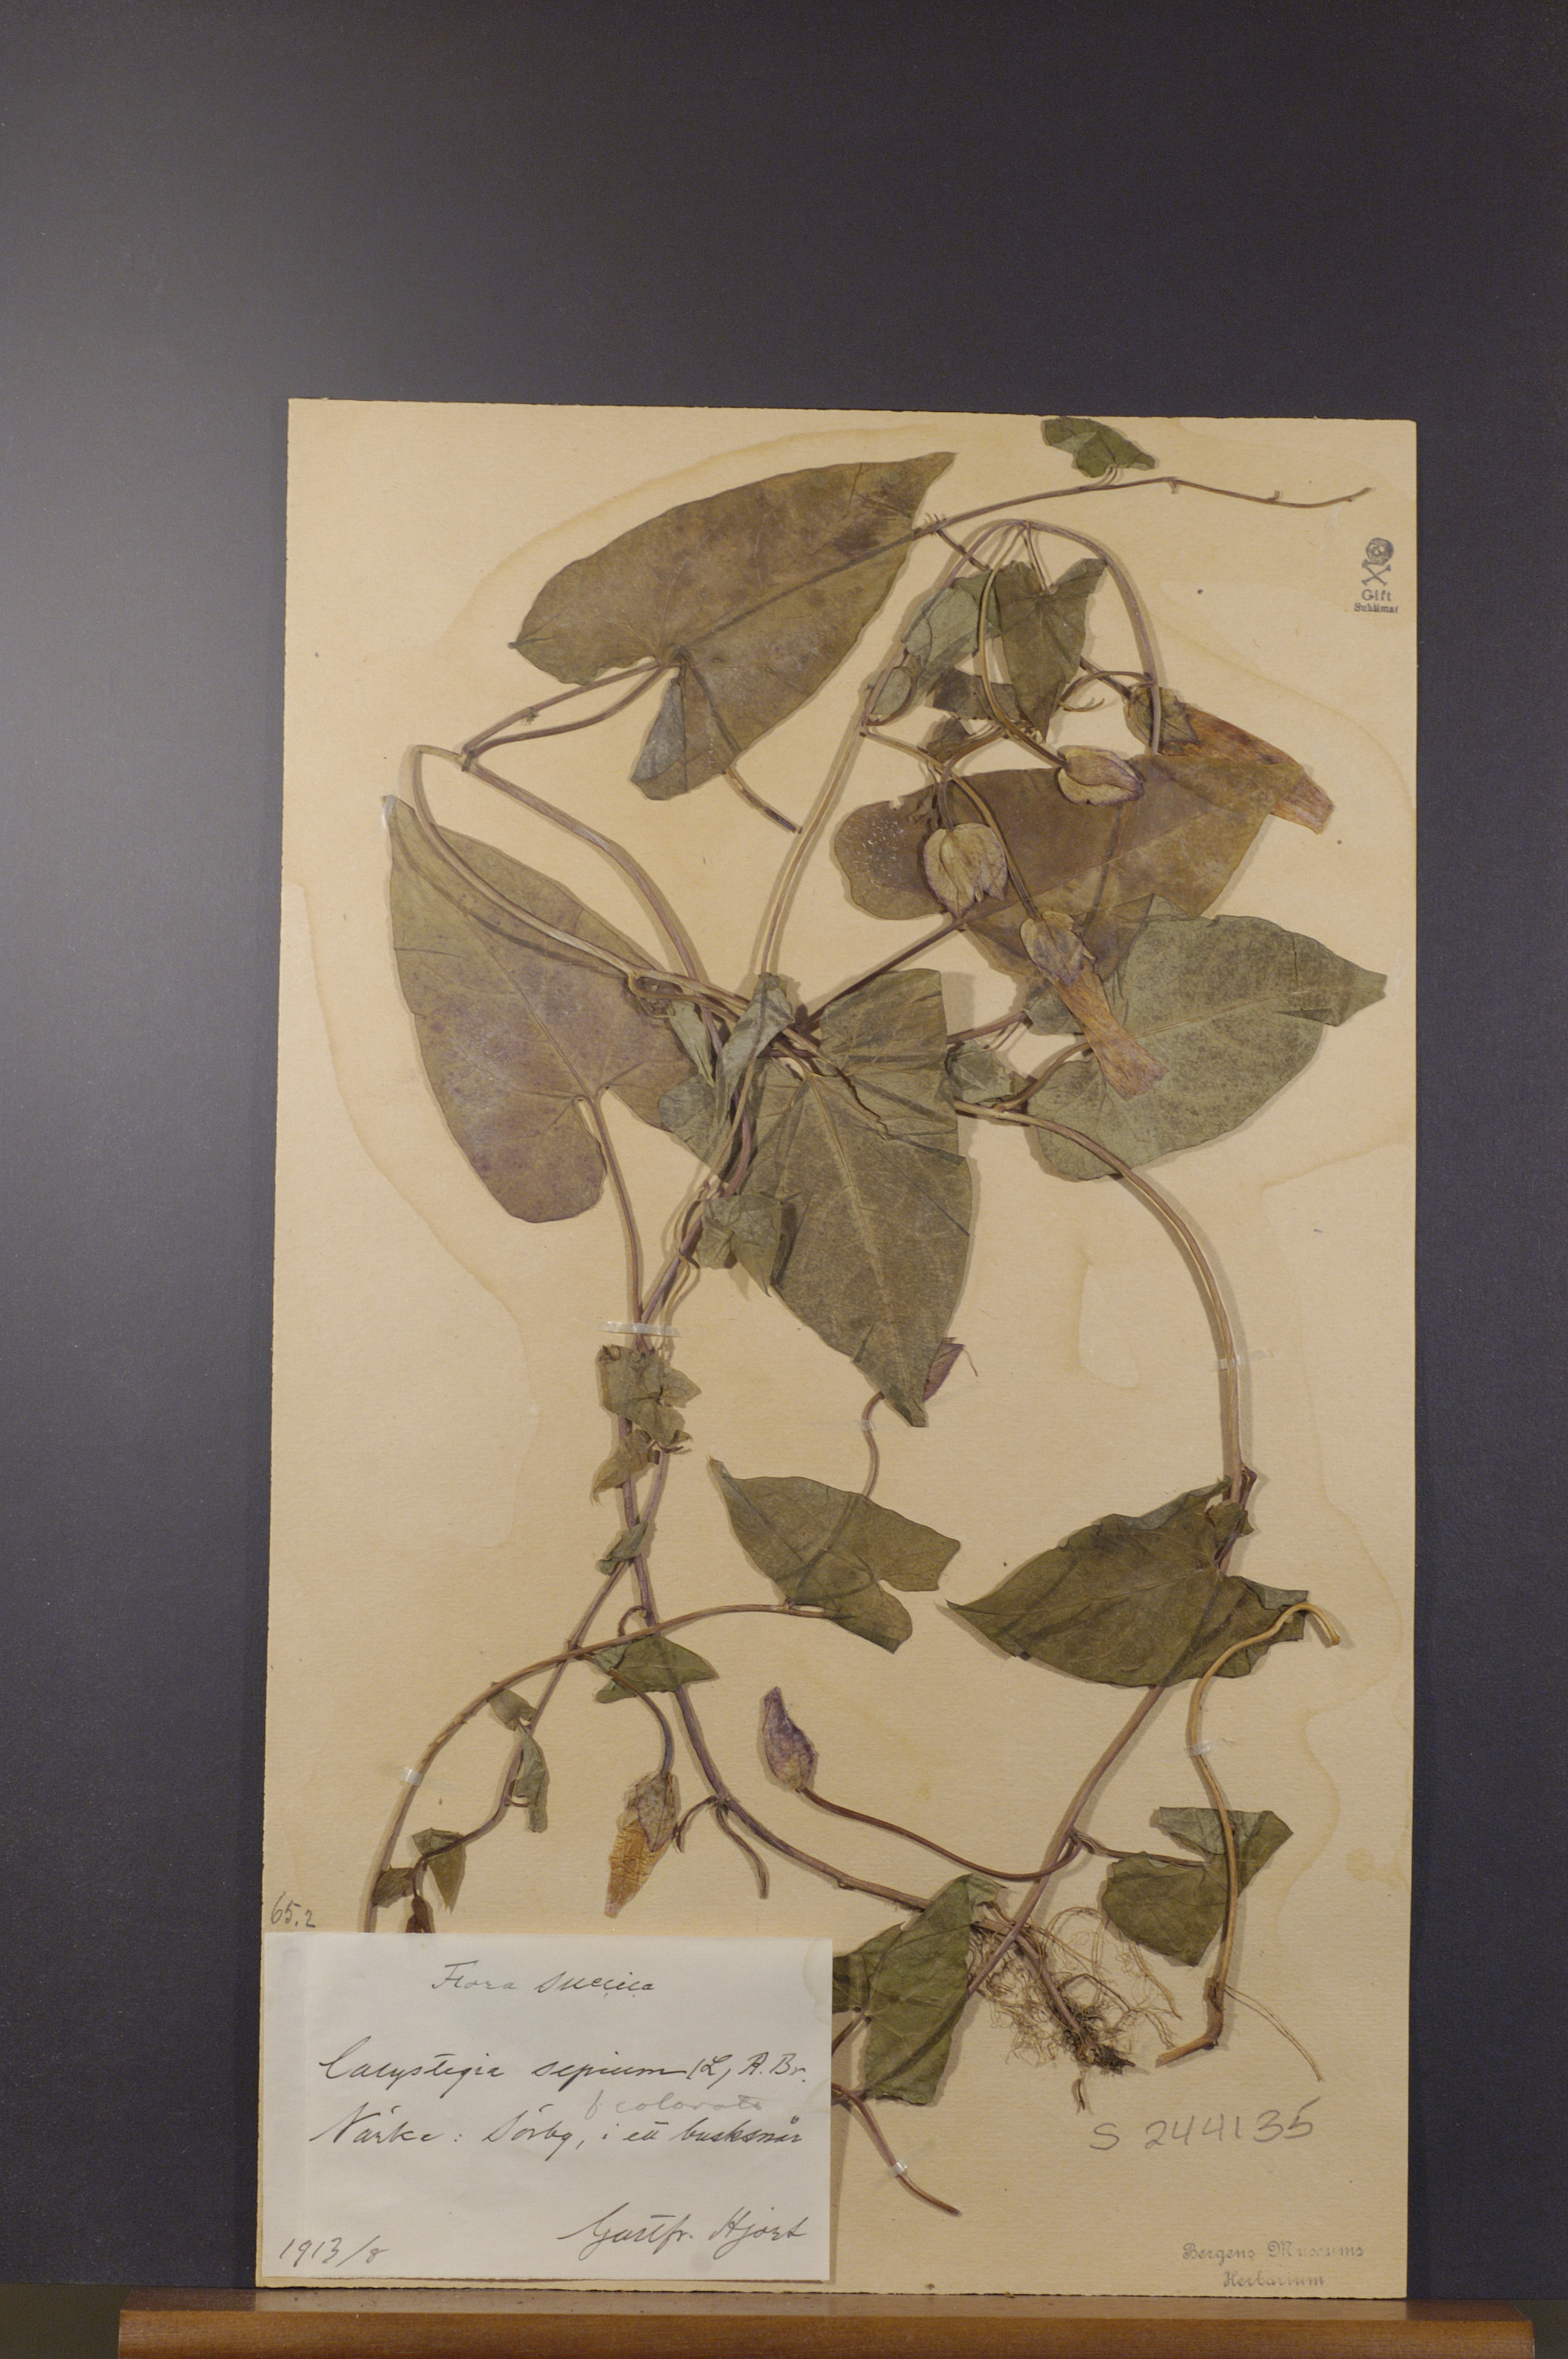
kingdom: Plantae
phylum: Tracheophyta
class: Magnoliopsida
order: Solanales
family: Convolvulaceae
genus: Calystegia
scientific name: Calystegia sepium
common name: Hedge bindweed
